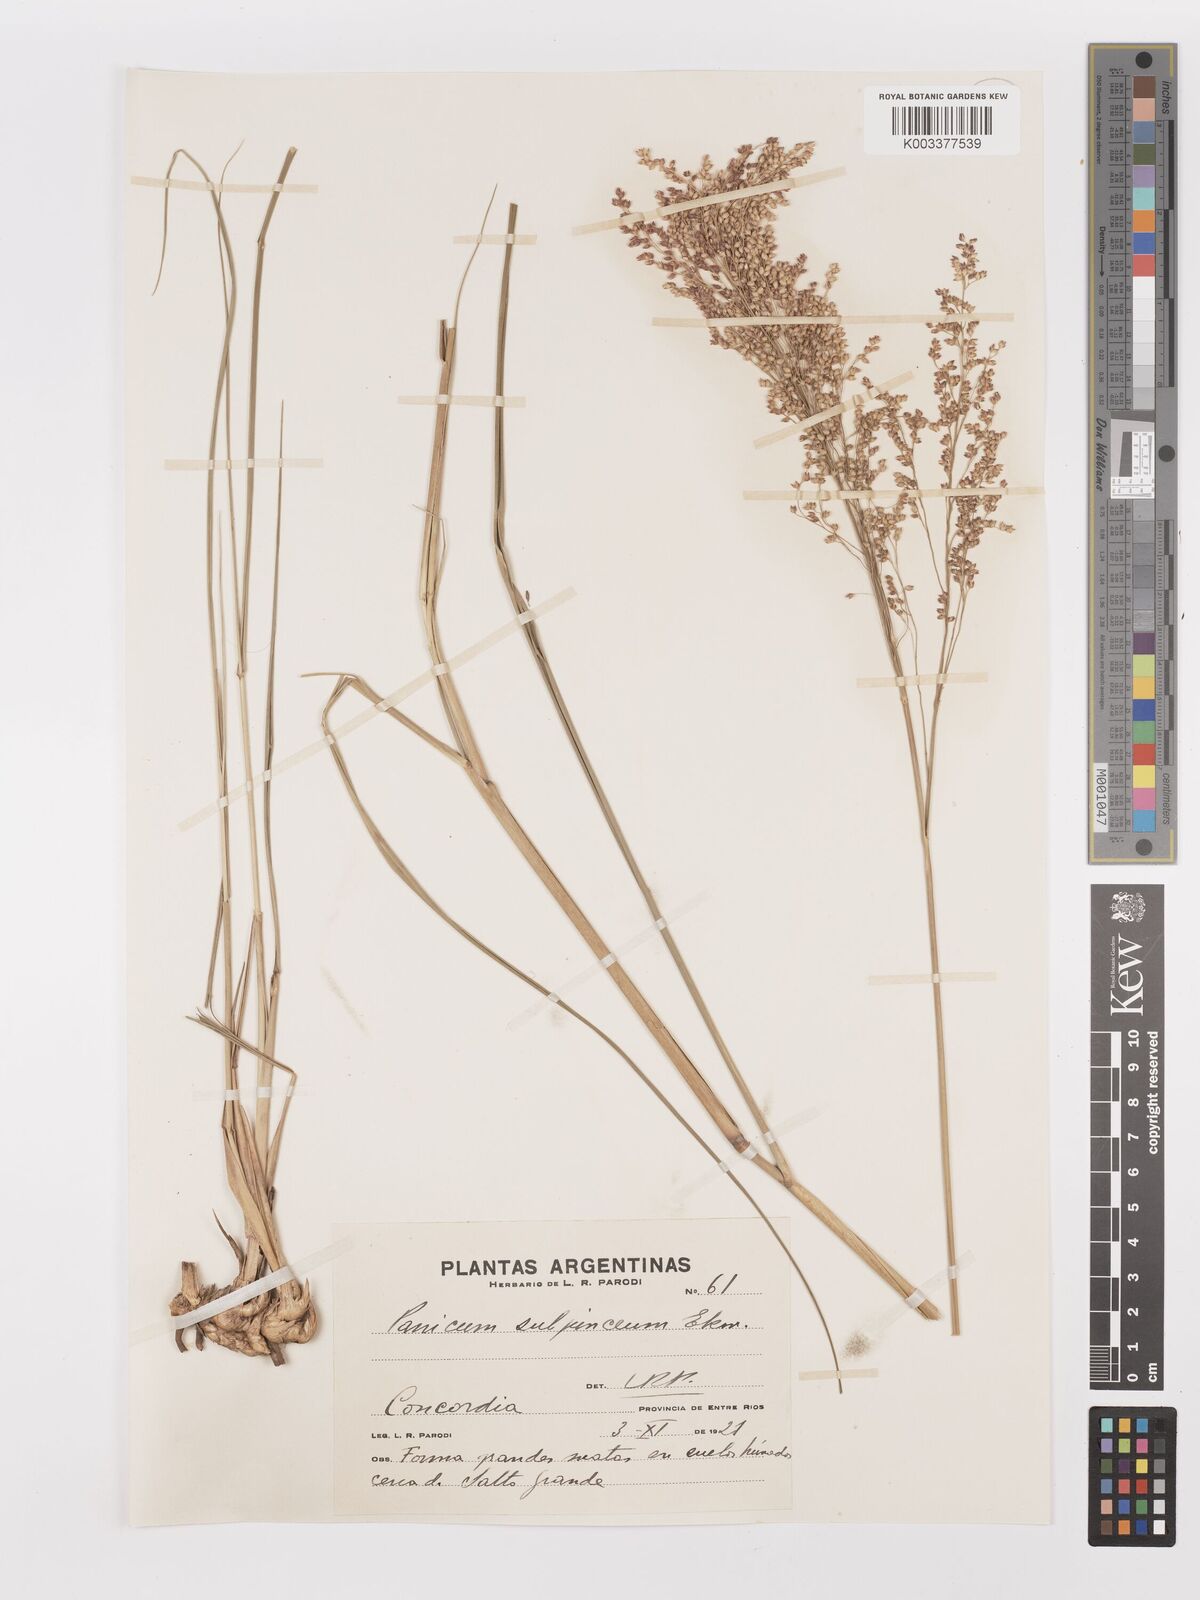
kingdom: Plantae
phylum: Tracheophyta
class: Liliopsida
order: Poales
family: Poaceae
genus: Panicum
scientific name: Panicum glabripes
